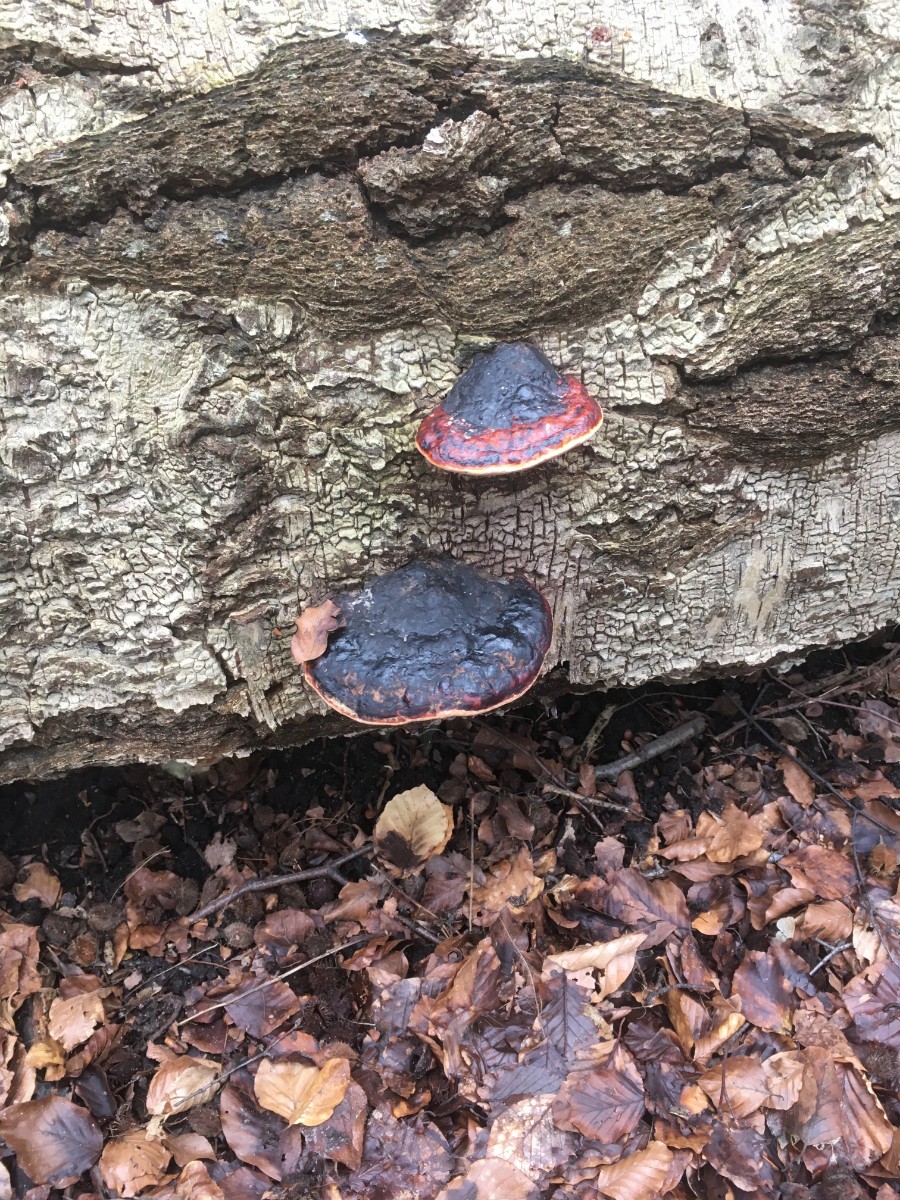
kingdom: Fungi
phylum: Basidiomycota
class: Agaricomycetes
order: Polyporales
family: Fomitopsidaceae
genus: Fomitopsis
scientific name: Fomitopsis pinicola
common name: randbæltet hovporesvamp
